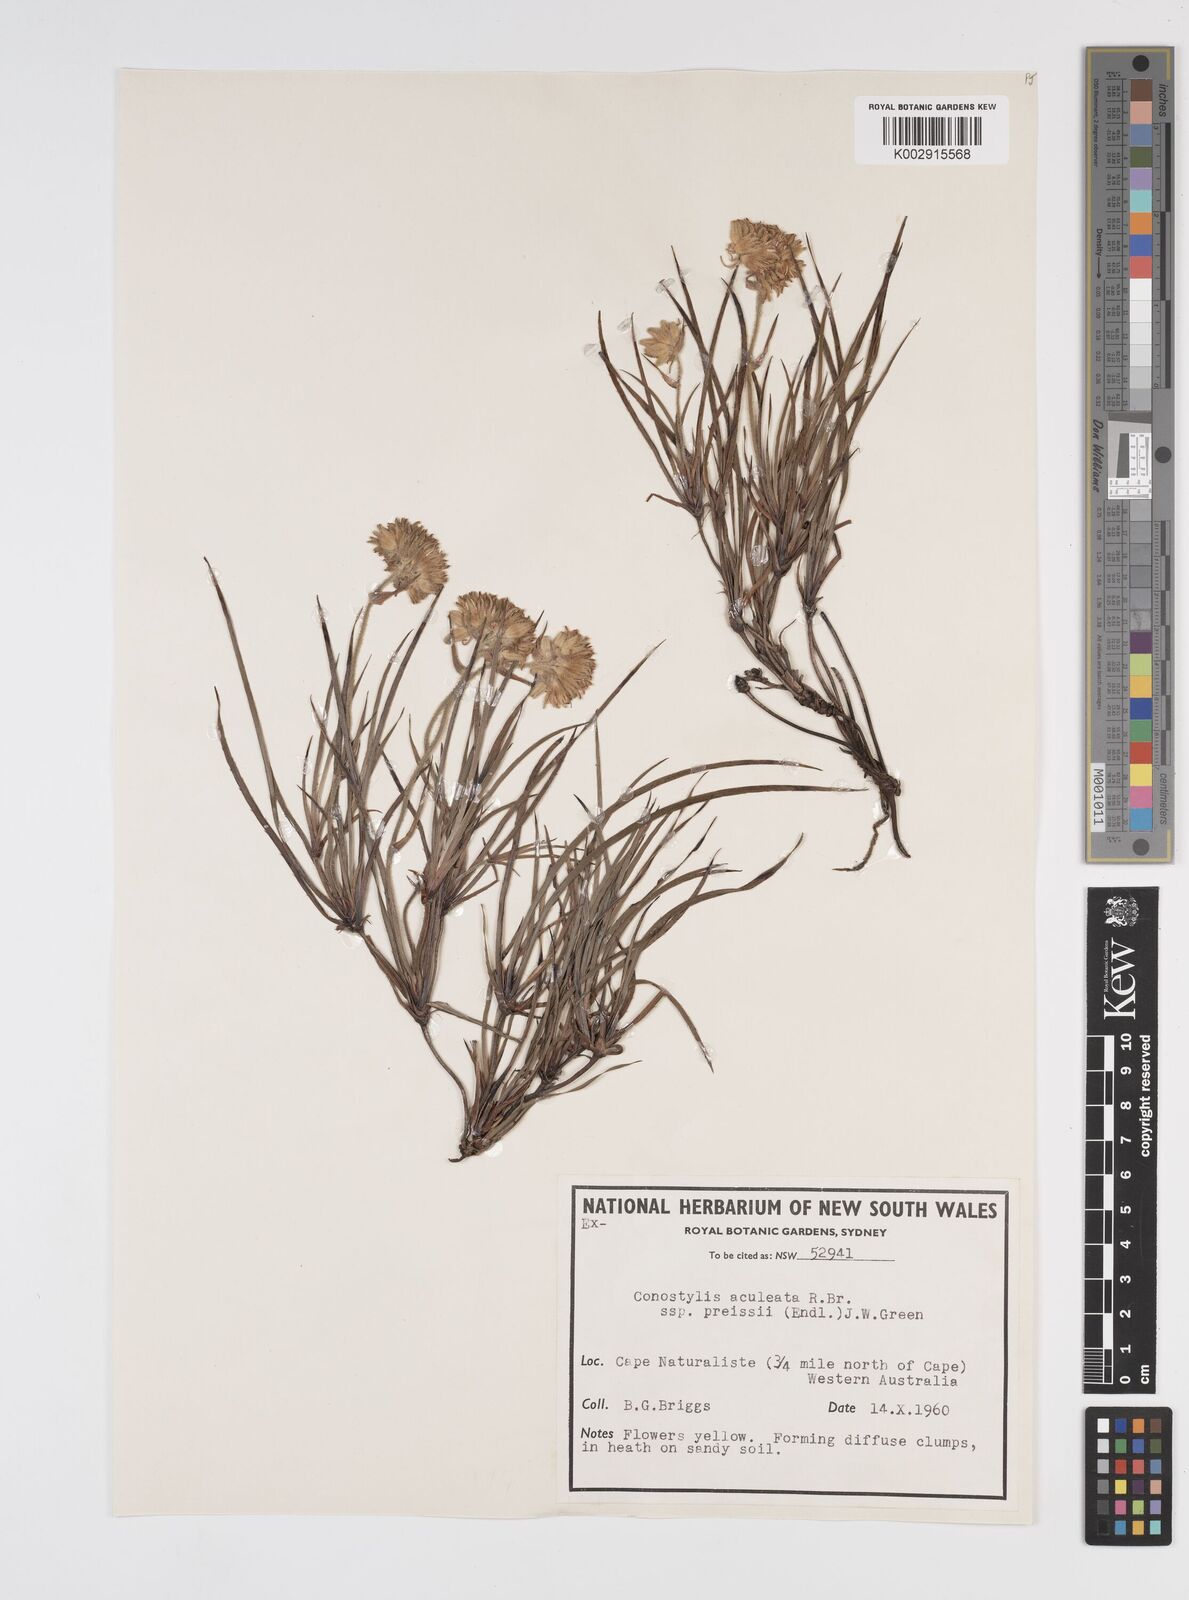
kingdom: Plantae
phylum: Tracheophyta
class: Liliopsida
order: Commelinales
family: Haemodoraceae
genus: Conostylis
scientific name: Conostylis aculeata
